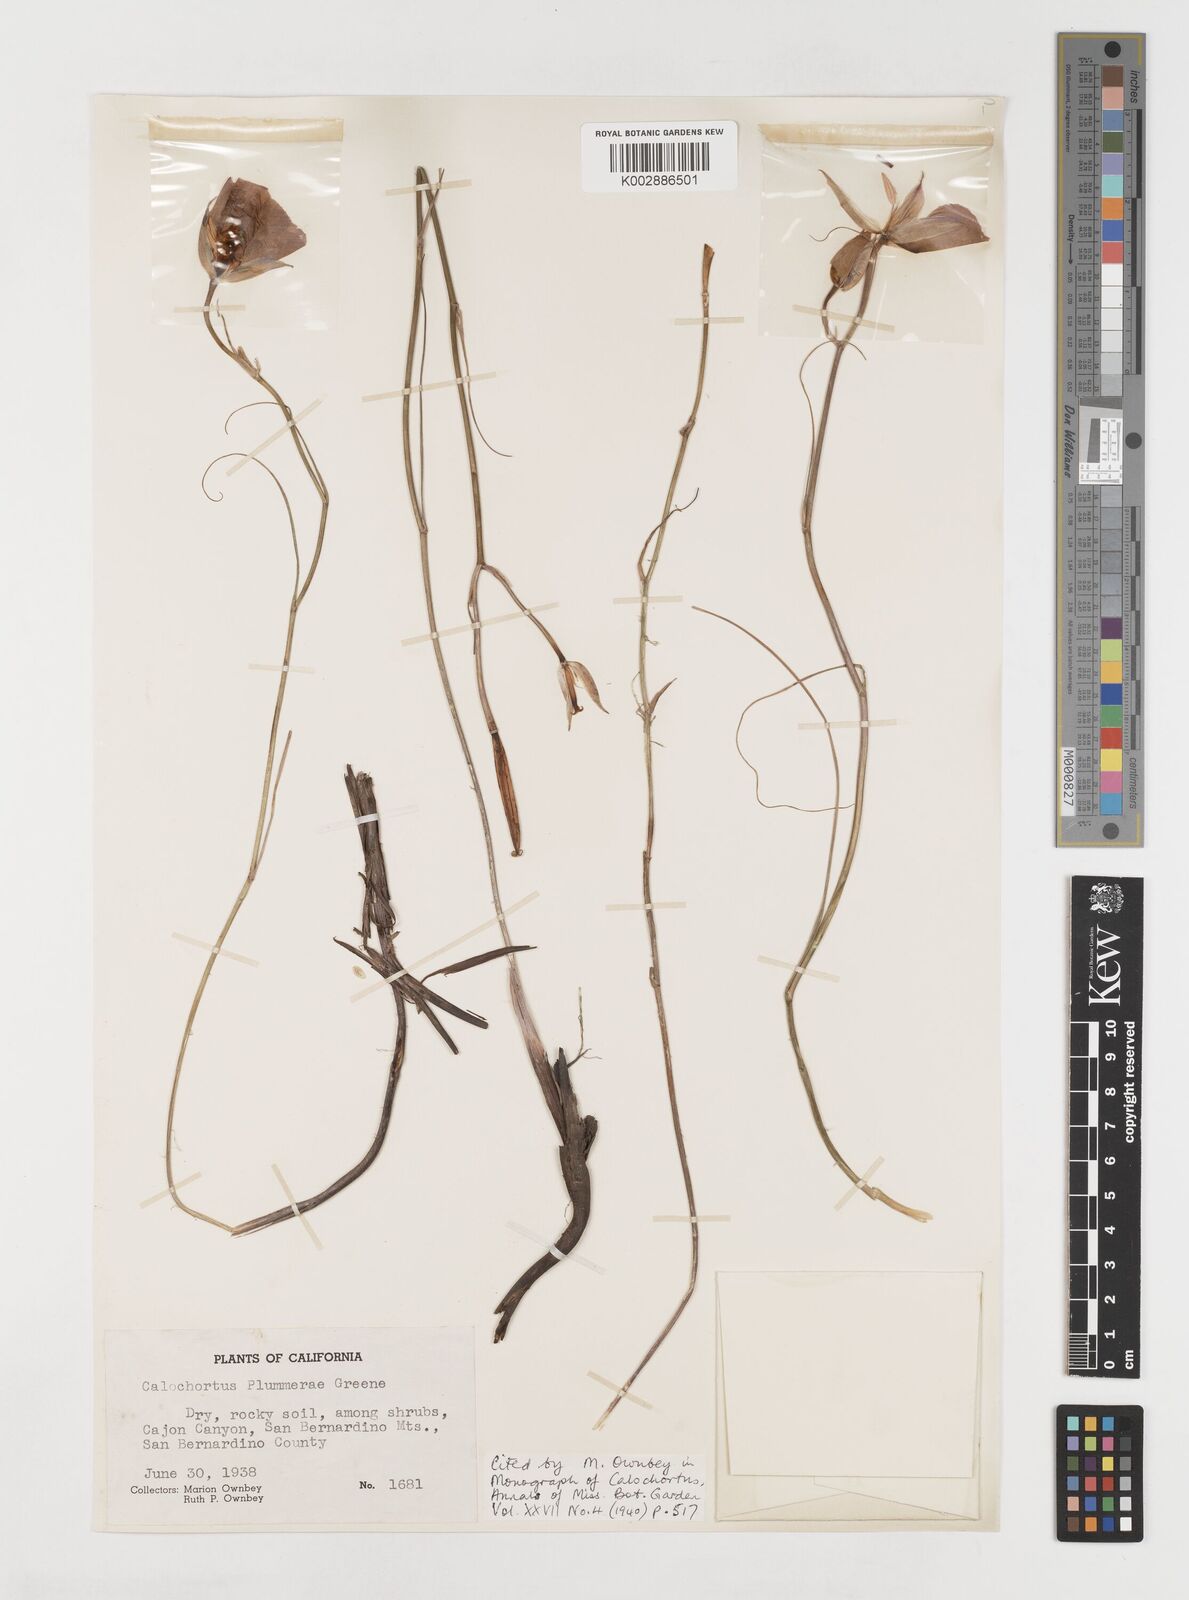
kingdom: Plantae
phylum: Tracheophyta
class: Liliopsida
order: Liliales
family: Liliaceae
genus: Calochortus
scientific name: Calochortus plummerae
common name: Plummer's mariposa-lily
